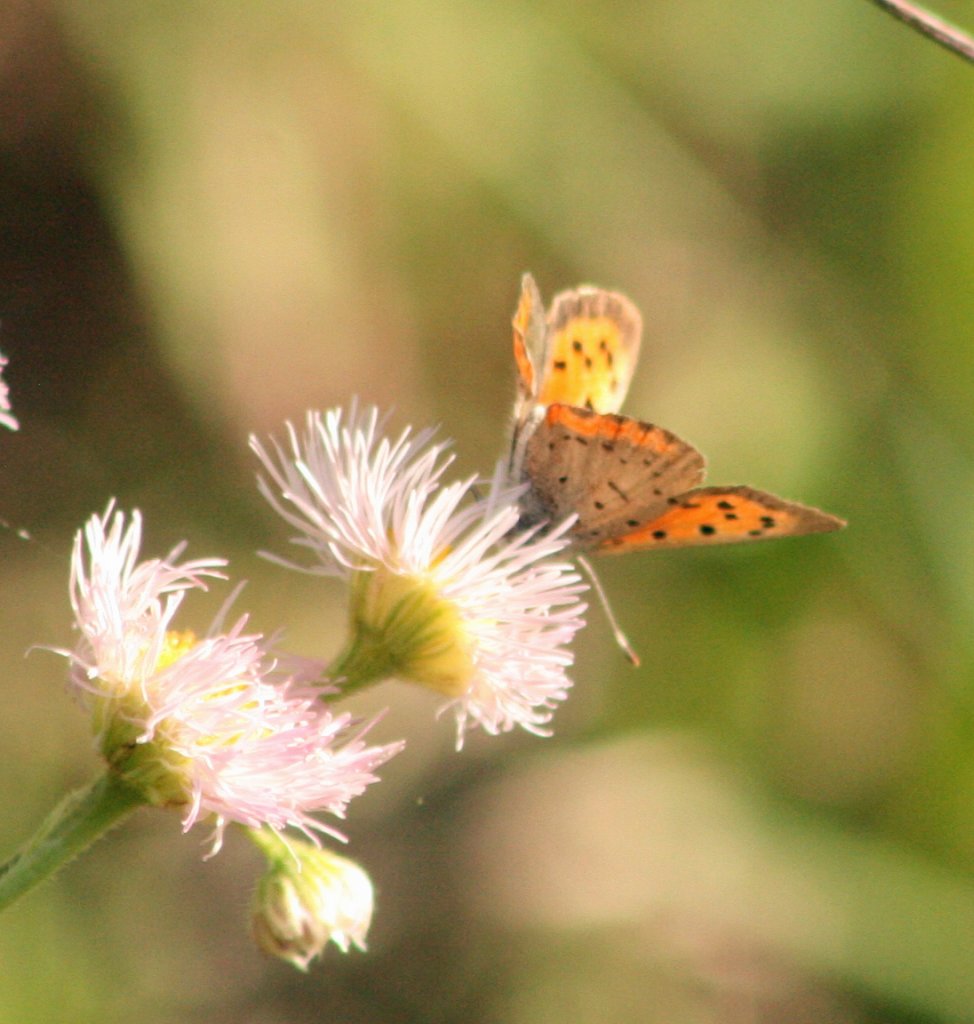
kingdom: Animalia
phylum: Arthropoda
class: Insecta
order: Lepidoptera
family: Lycaenidae
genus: Lycaena
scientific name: Lycaena phlaeas
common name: American Copper
